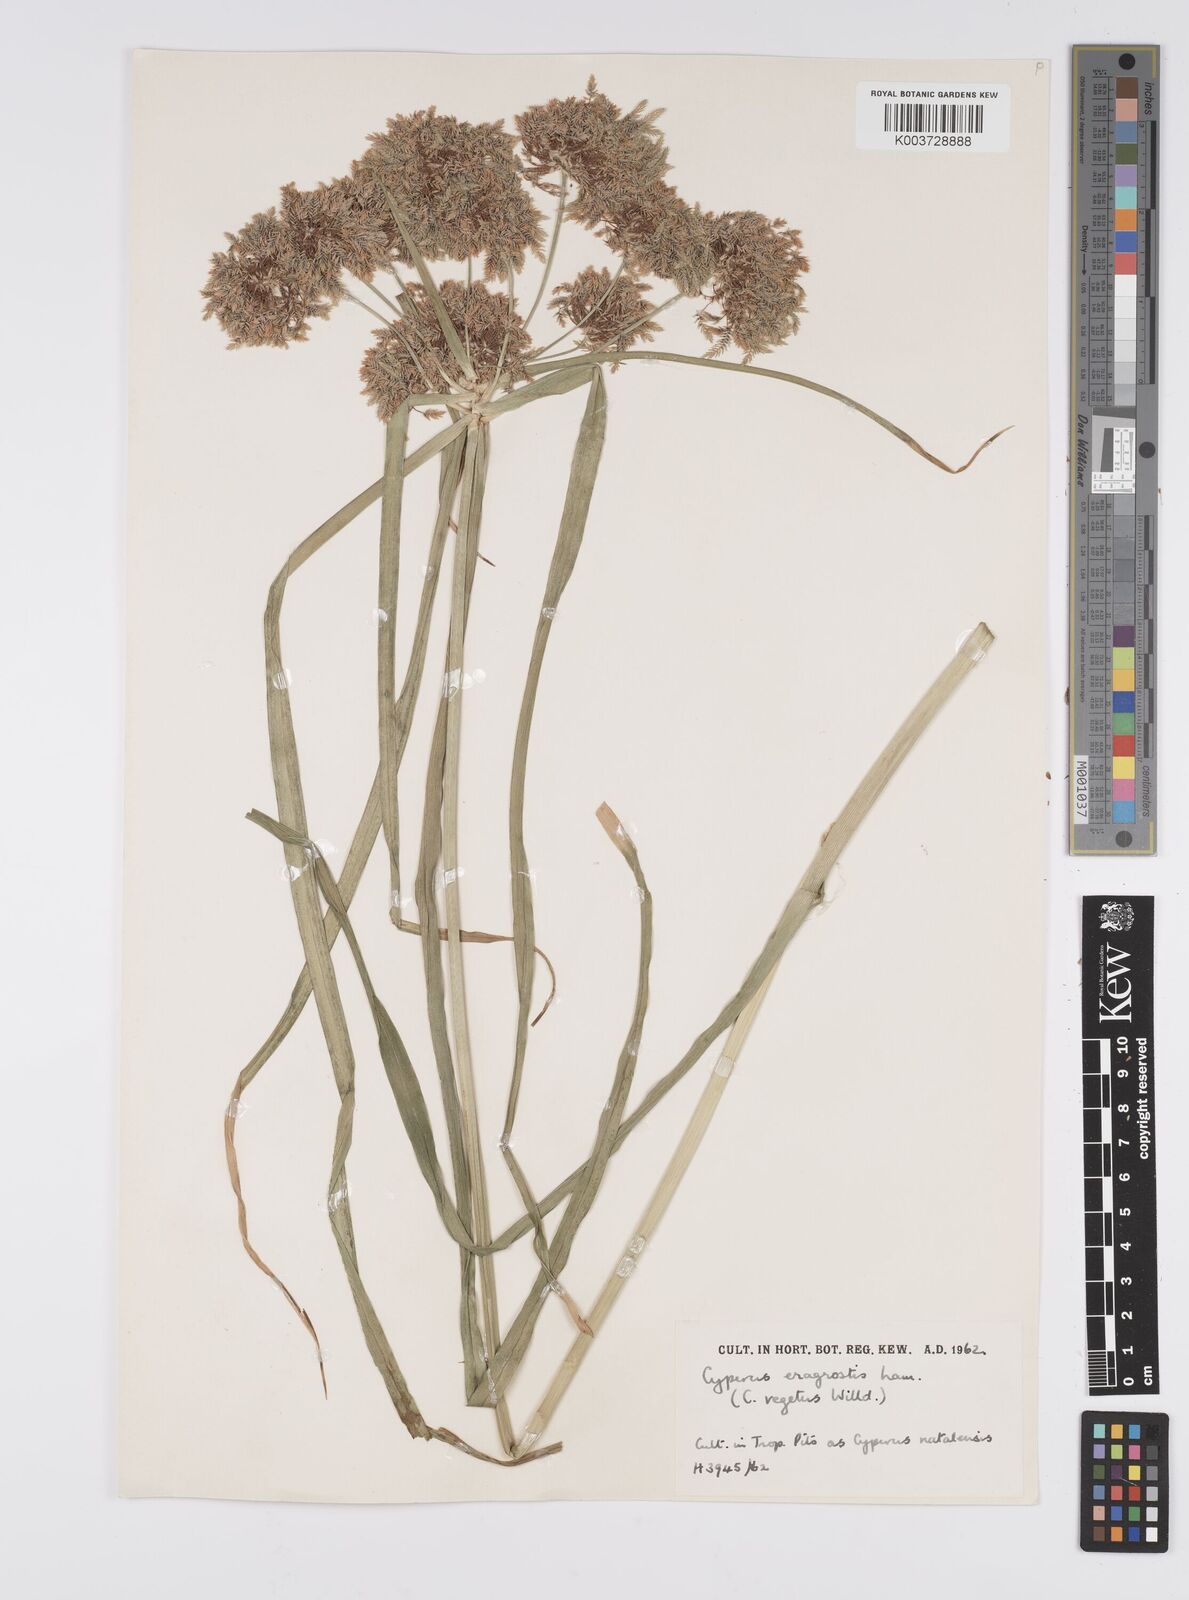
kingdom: Plantae
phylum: Tracheophyta
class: Liliopsida
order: Poales
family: Cyperaceae
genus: Cyperus
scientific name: Cyperus eragrostis
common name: Tall flatsedge
